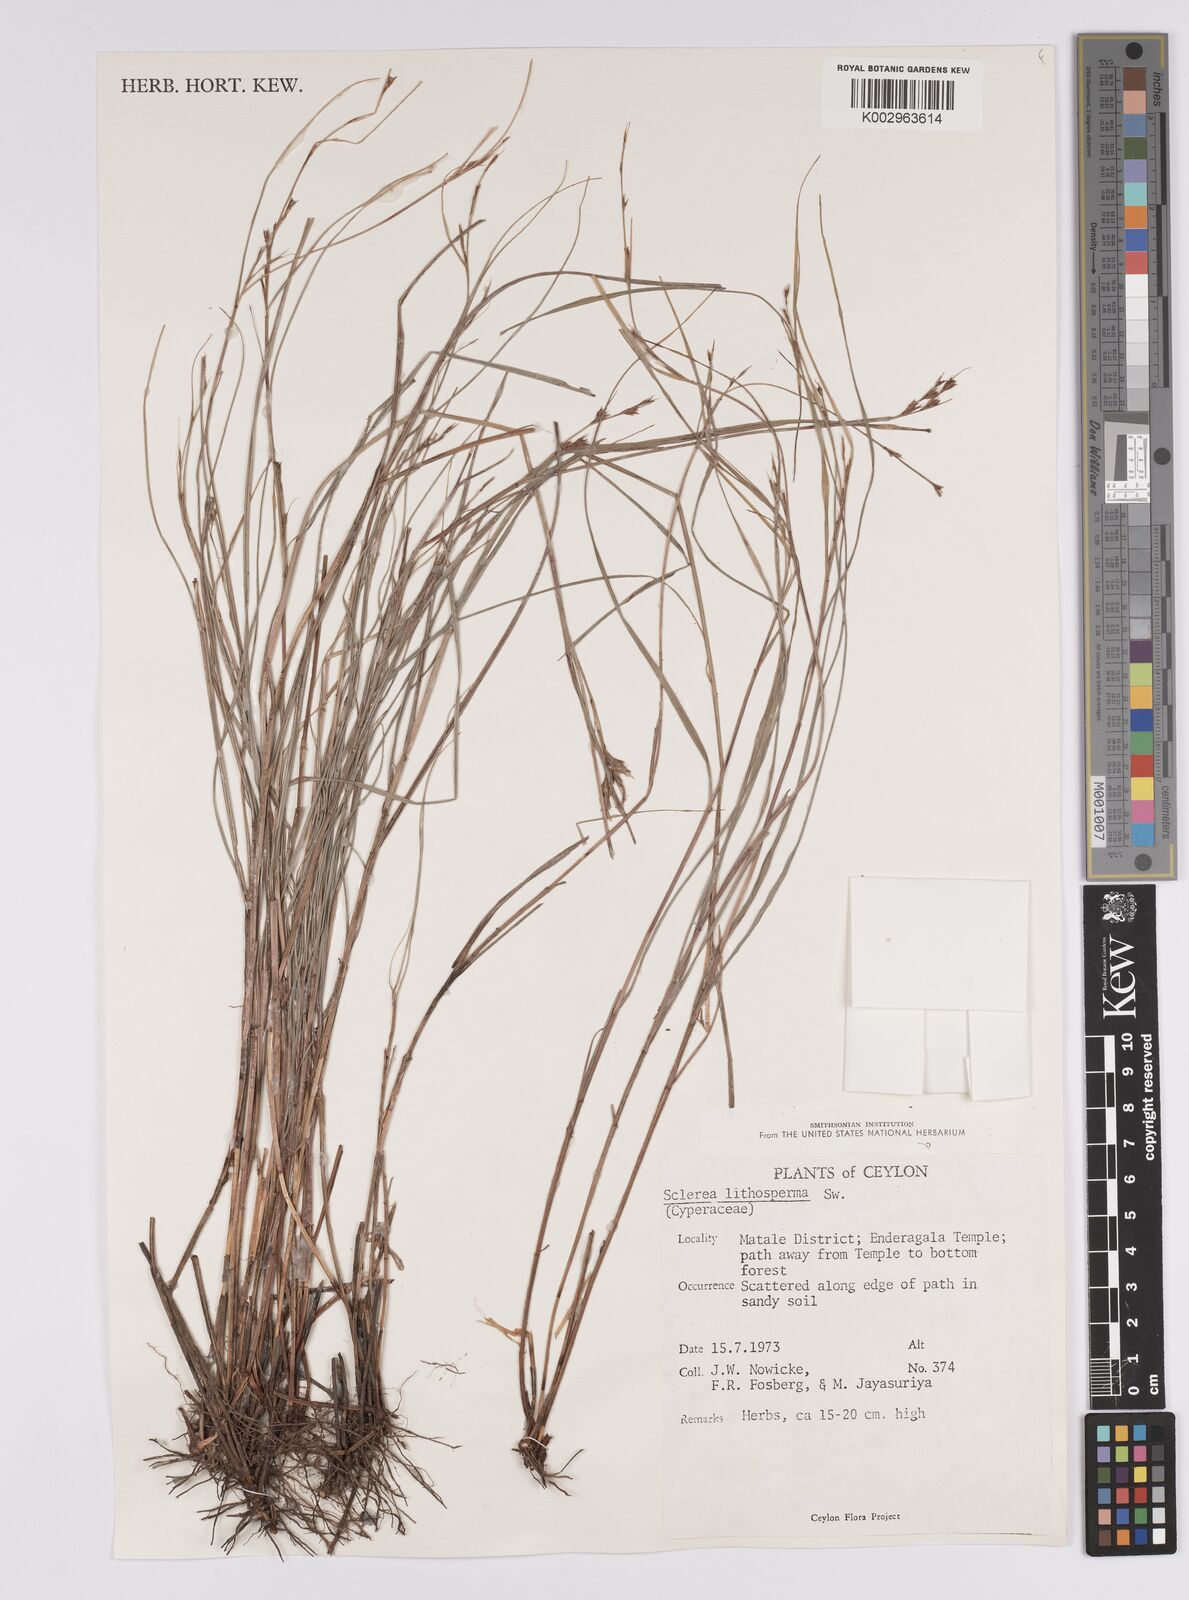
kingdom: Plantae
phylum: Tracheophyta
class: Liliopsida
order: Poales
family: Cyperaceae
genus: Scleria
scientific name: Scleria lithosperma
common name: Florida keys nut-rush
